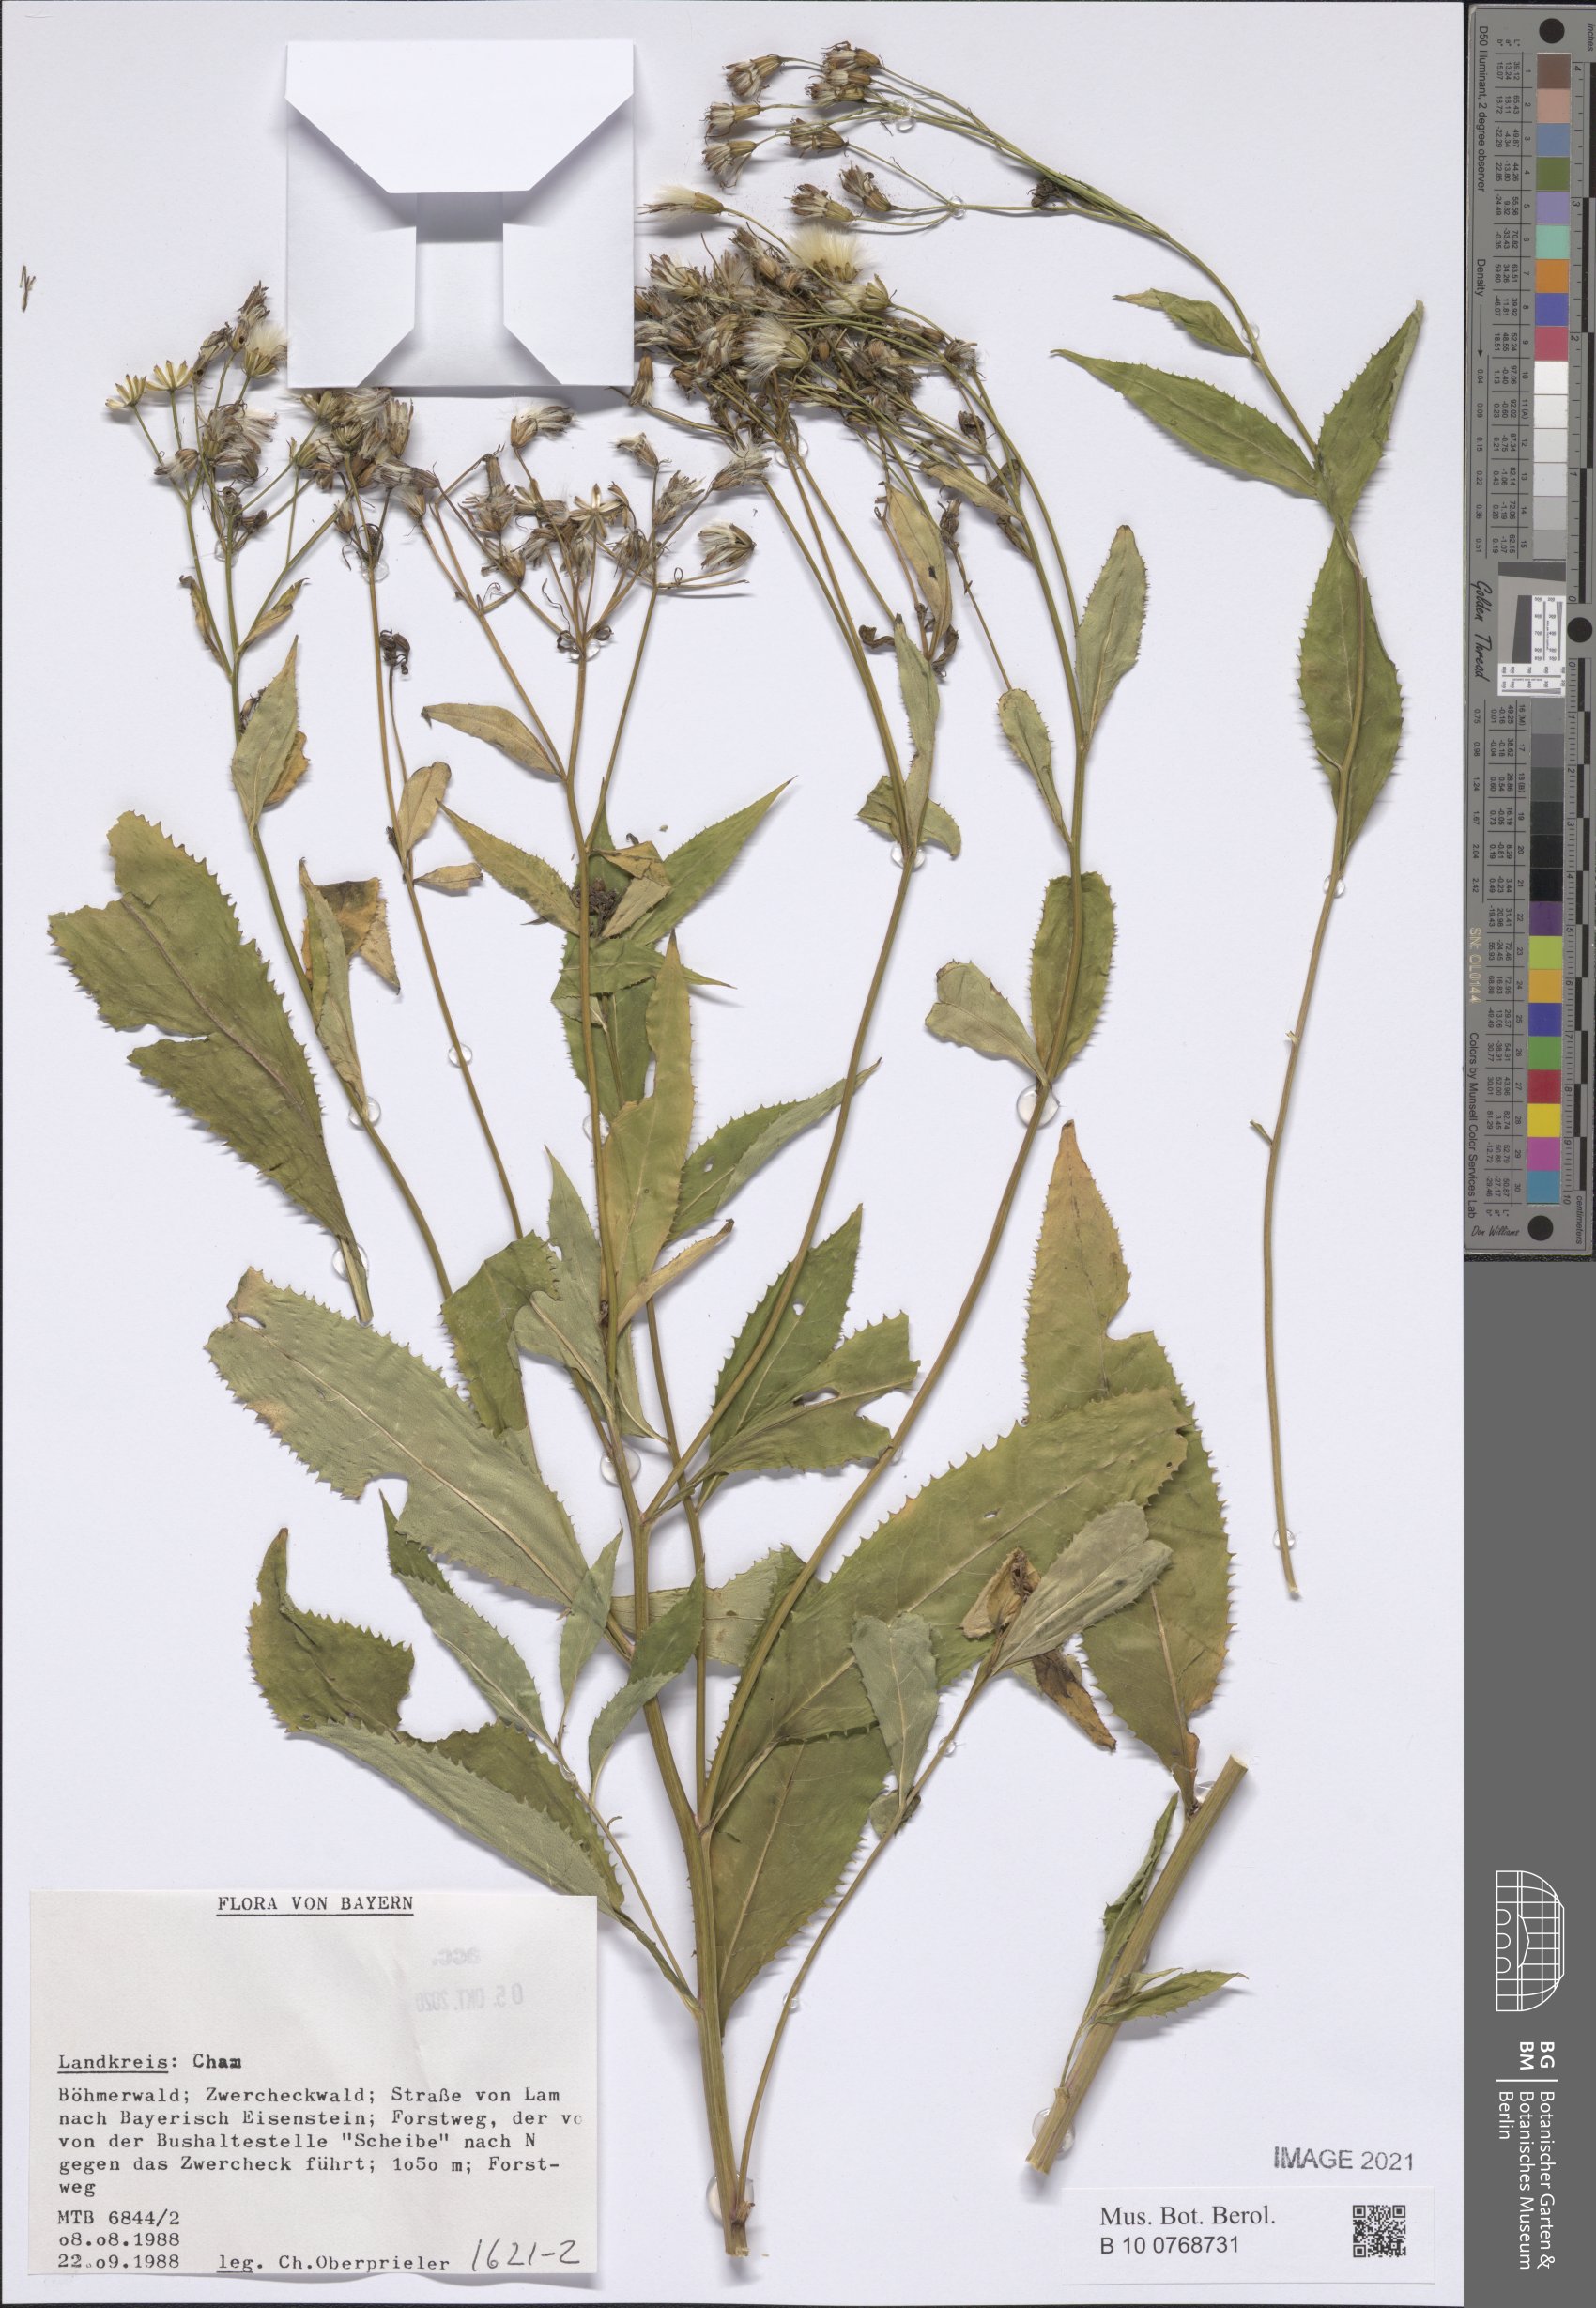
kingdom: Plantae
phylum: Tracheophyta
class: Magnoliopsida
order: Asterales
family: Asteraceae
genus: Senecio
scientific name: Senecio
